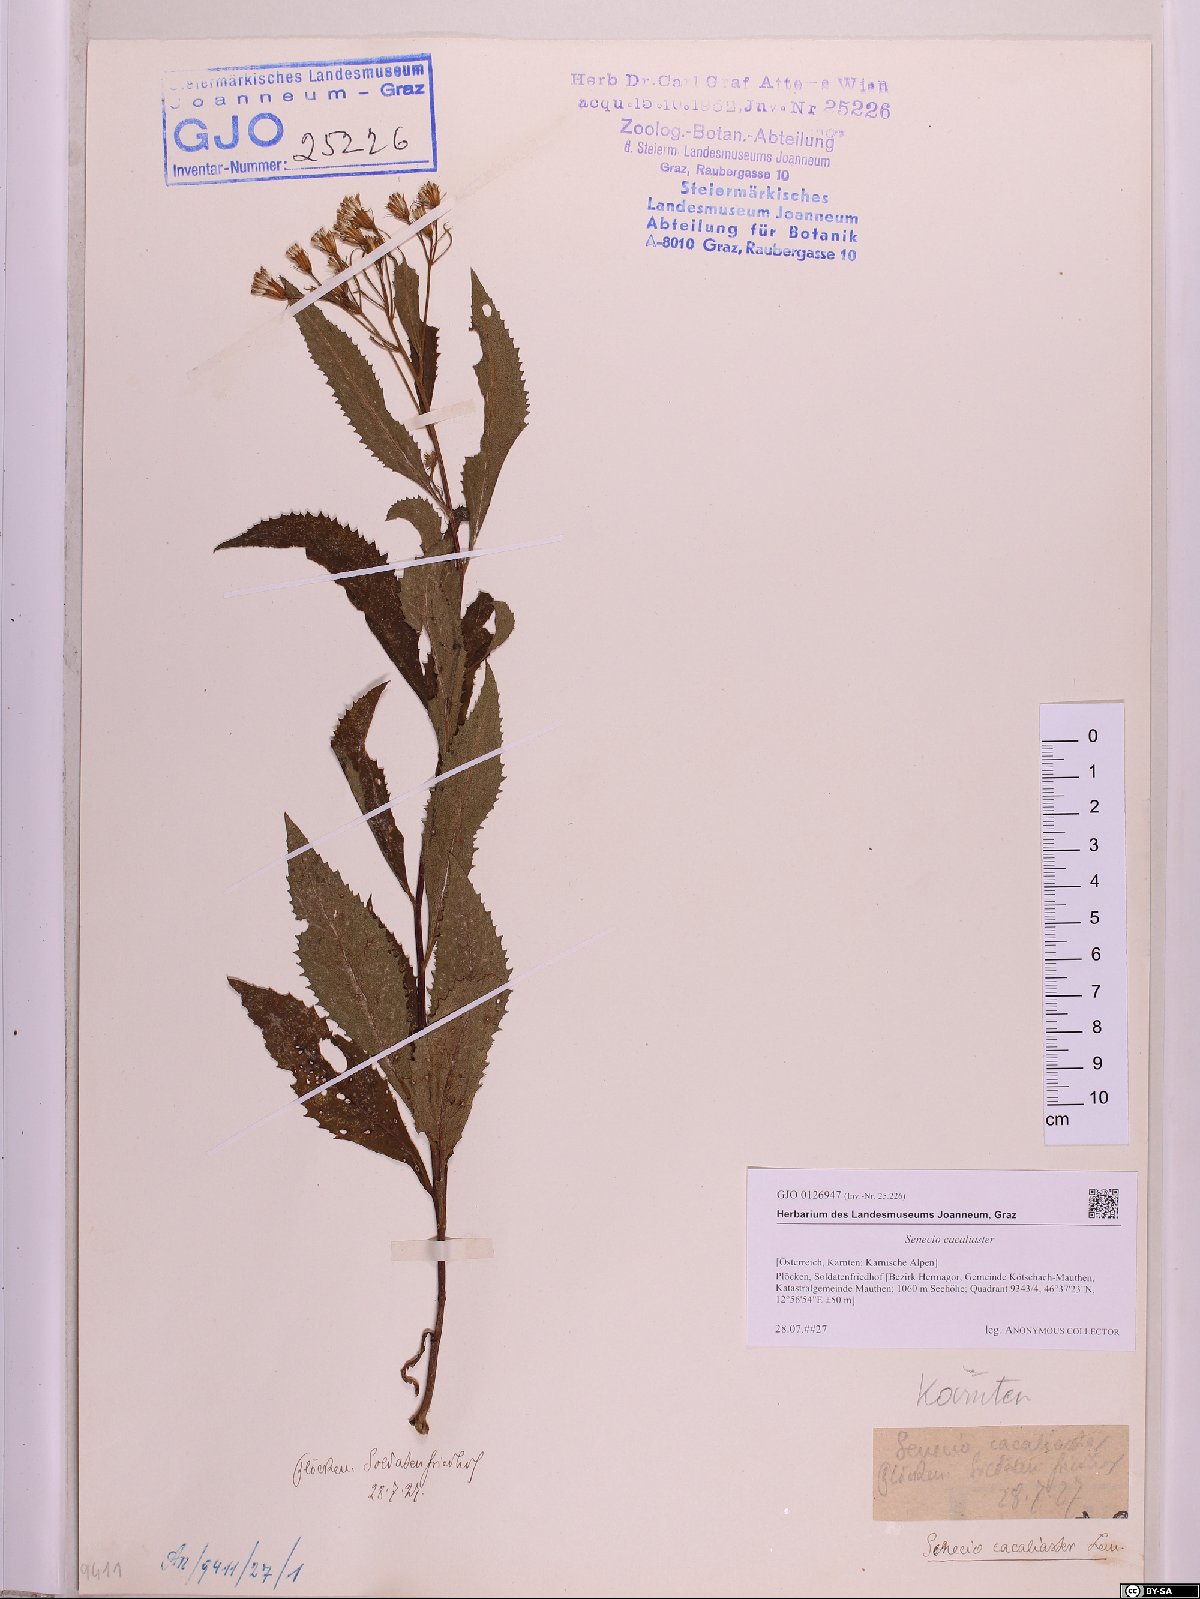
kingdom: Plantae
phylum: Tracheophyta
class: Magnoliopsida
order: Asterales
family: Asteraceae
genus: Senecio
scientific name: Senecio cacaliaster
